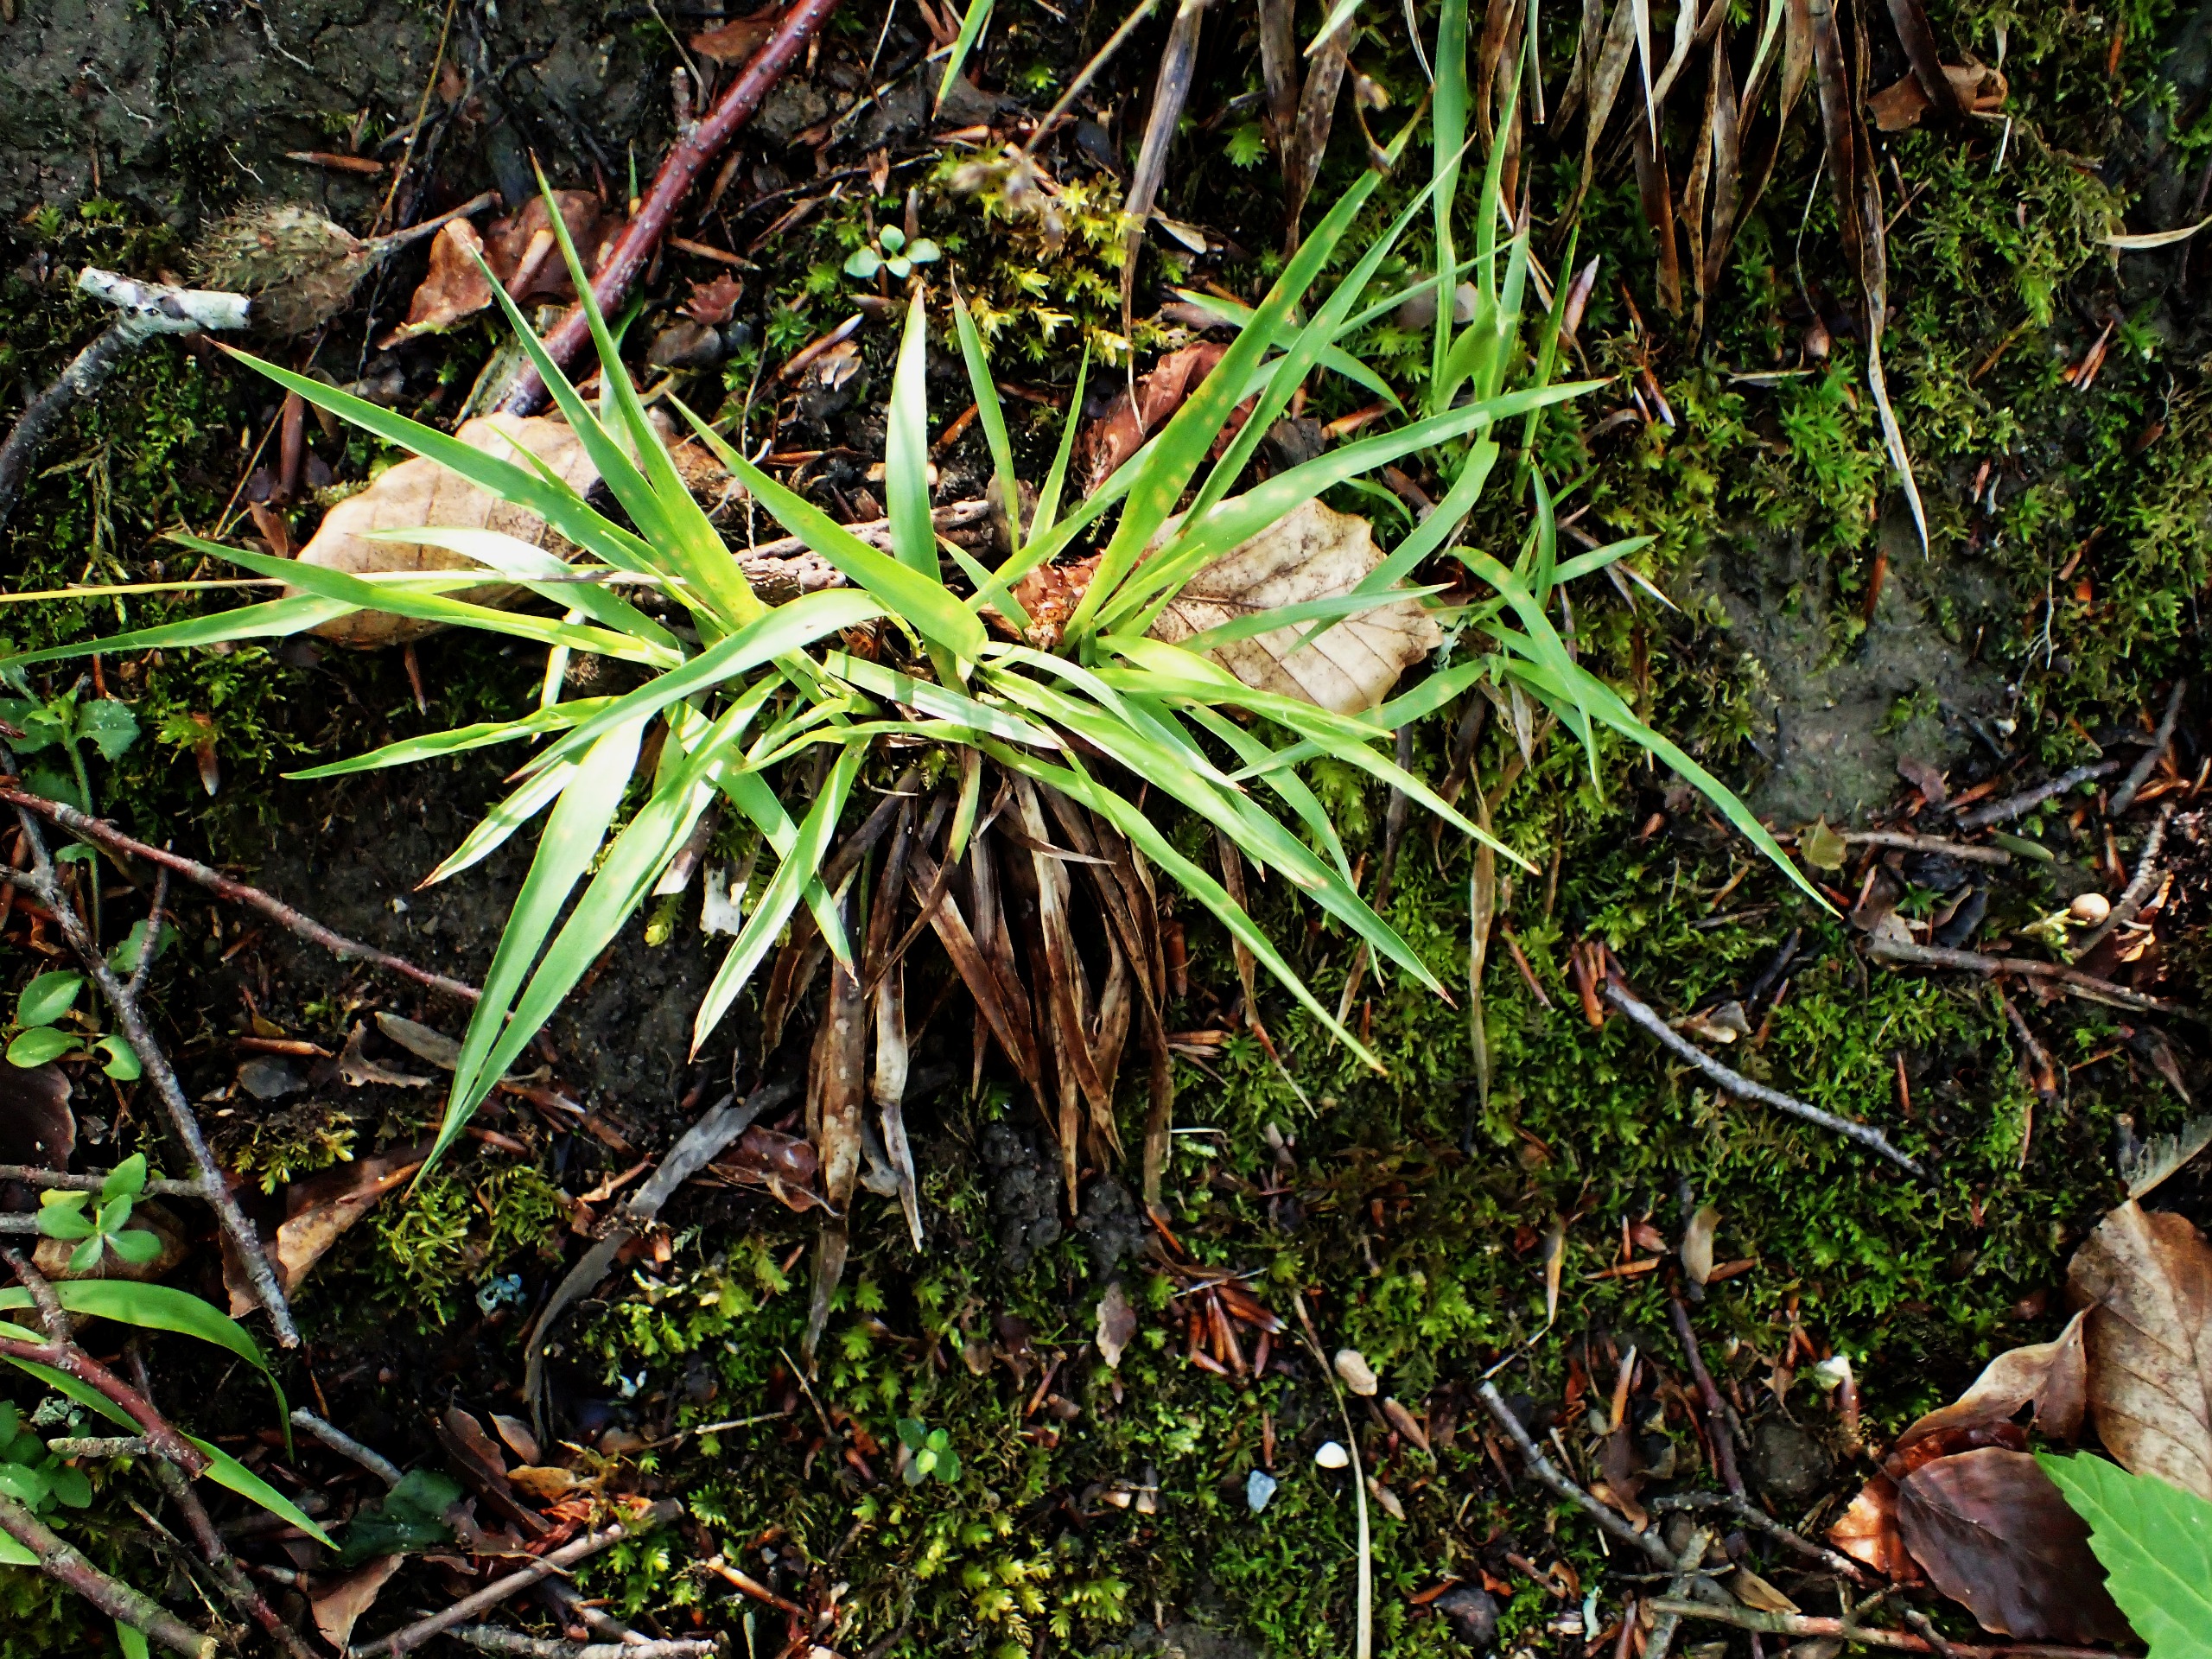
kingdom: Plantae
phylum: Tracheophyta
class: Liliopsida
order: Poales
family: Juncaceae
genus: Luzula
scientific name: Luzula pilosa
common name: Håret frytle
